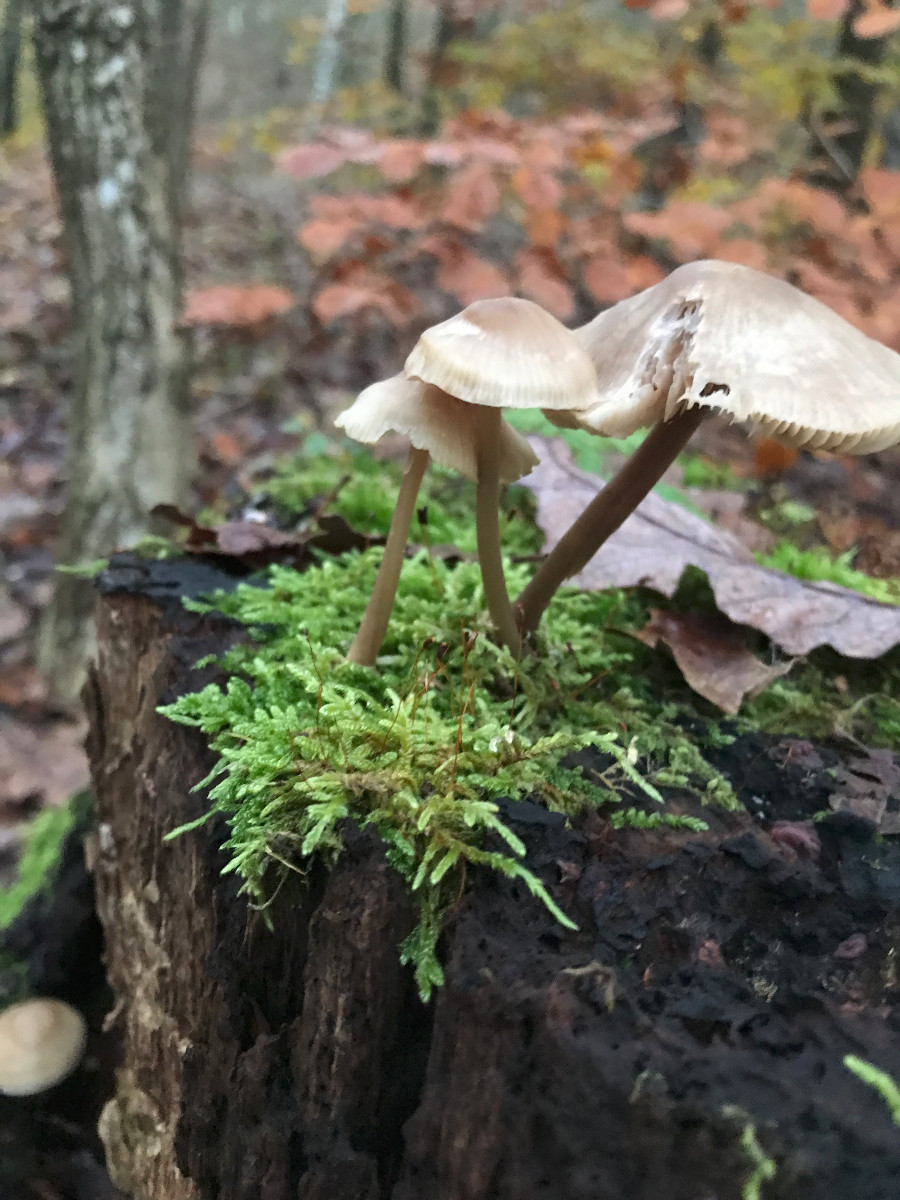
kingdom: Fungi
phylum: Basidiomycota
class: Agaricomycetes
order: Agaricales
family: Mycenaceae
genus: Mycena
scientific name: Mycena galericulata
